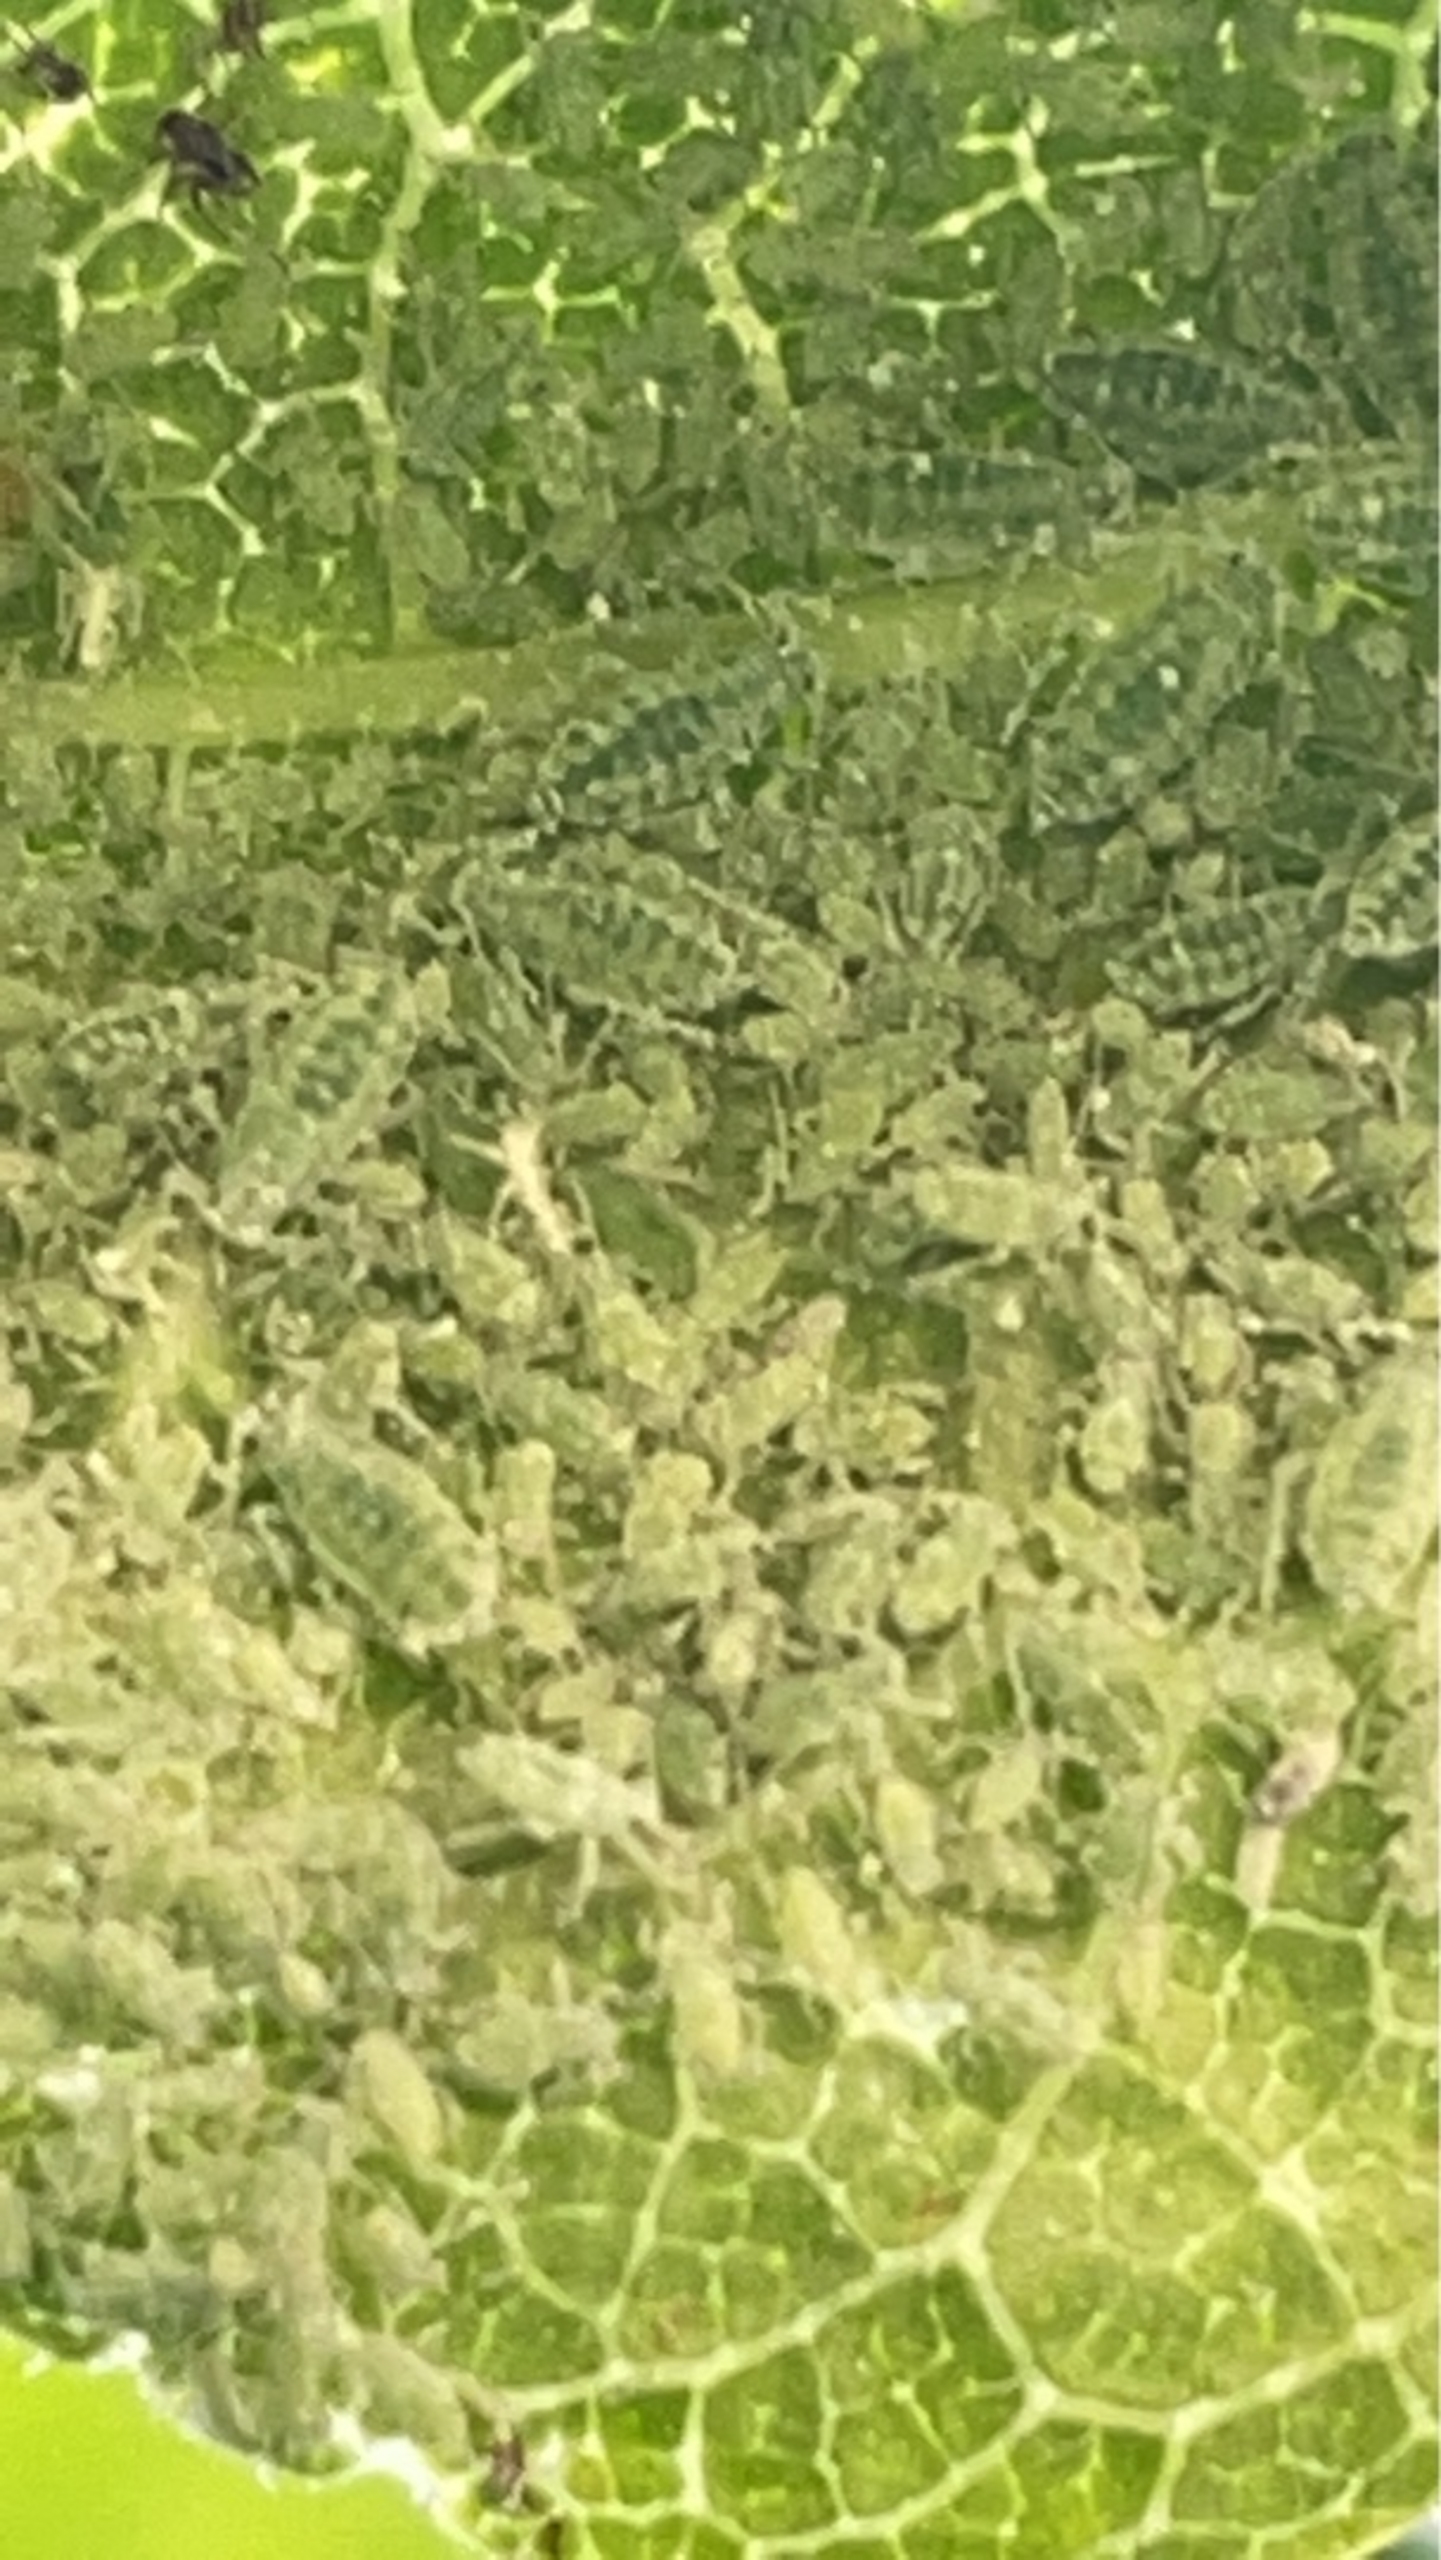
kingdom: Animalia
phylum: Arthropoda
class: Insecta
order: Hemiptera
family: Aphididae
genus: Hyalopterus
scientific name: Hyalopterus pruni
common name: Melet blommebladlus
